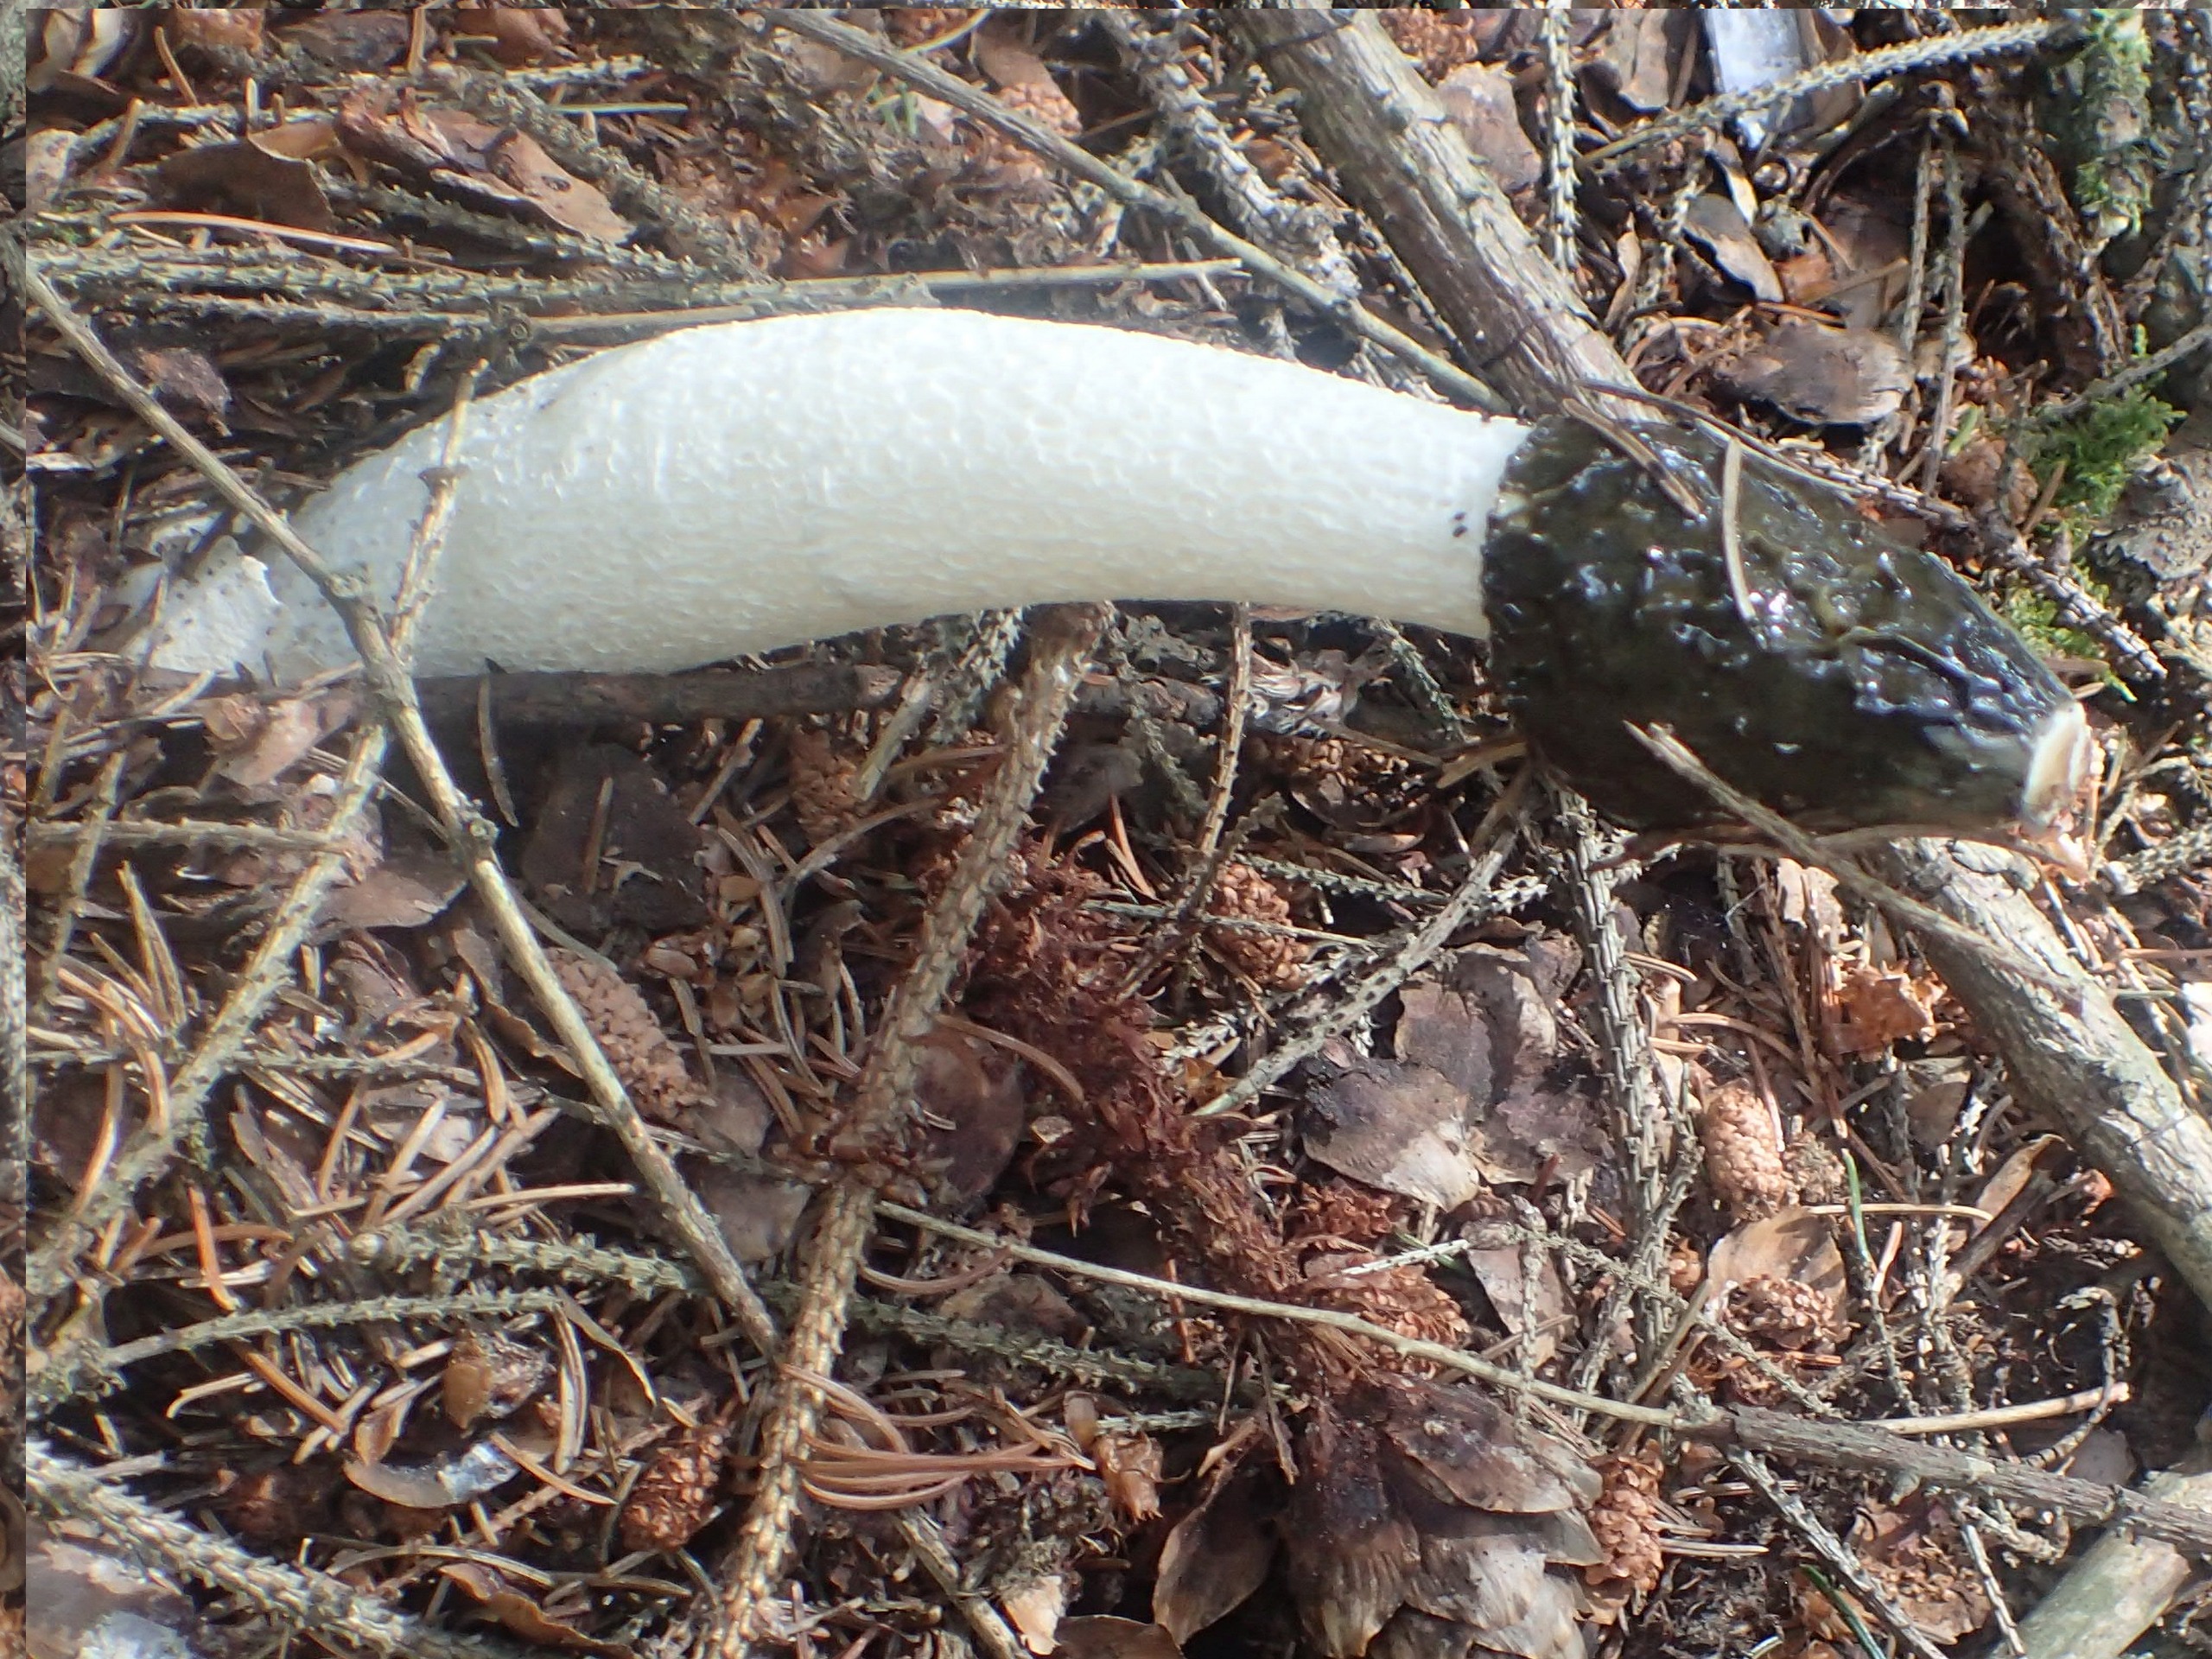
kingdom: Fungi
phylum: Basidiomycota
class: Agaricomycetes
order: Phallales
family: Phallaceae
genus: Phallus
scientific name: Phallus impudicus
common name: Almindelig stinksvamp
